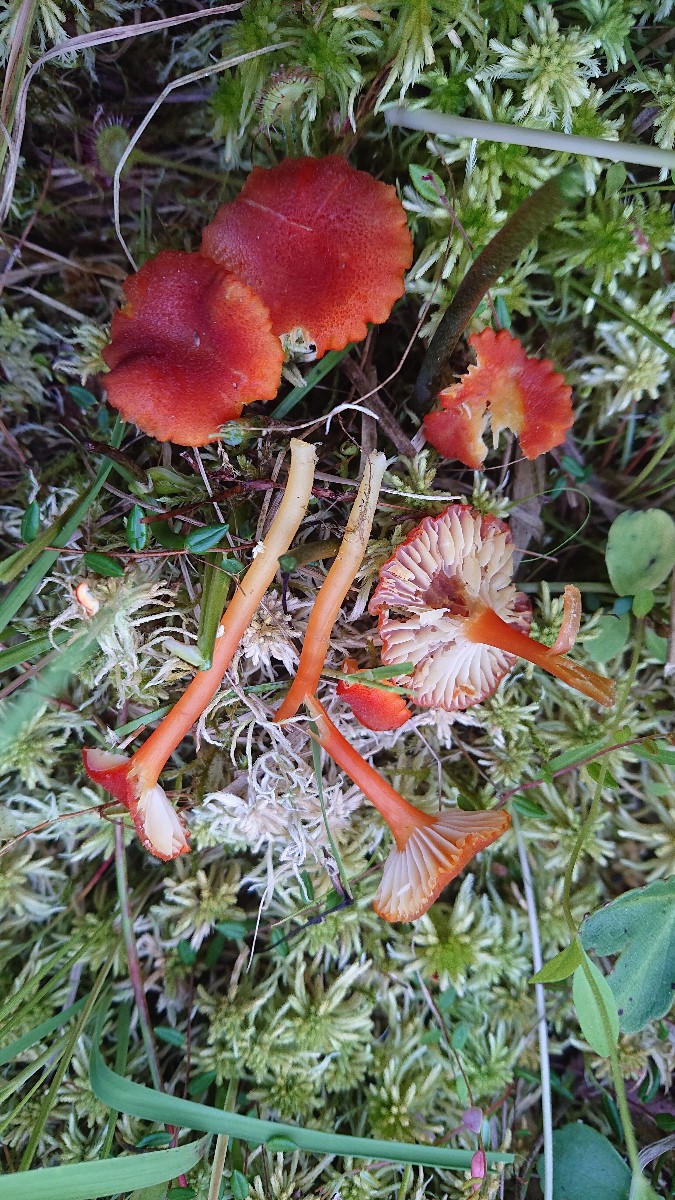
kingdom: Fungi
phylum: Basidiomycota
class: Agaricomycetes
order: Agaricales
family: Hygrophoraceae
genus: Hygrocybe
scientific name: Hygrocybe coccineocrenata
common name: tørvemos-vokshat
